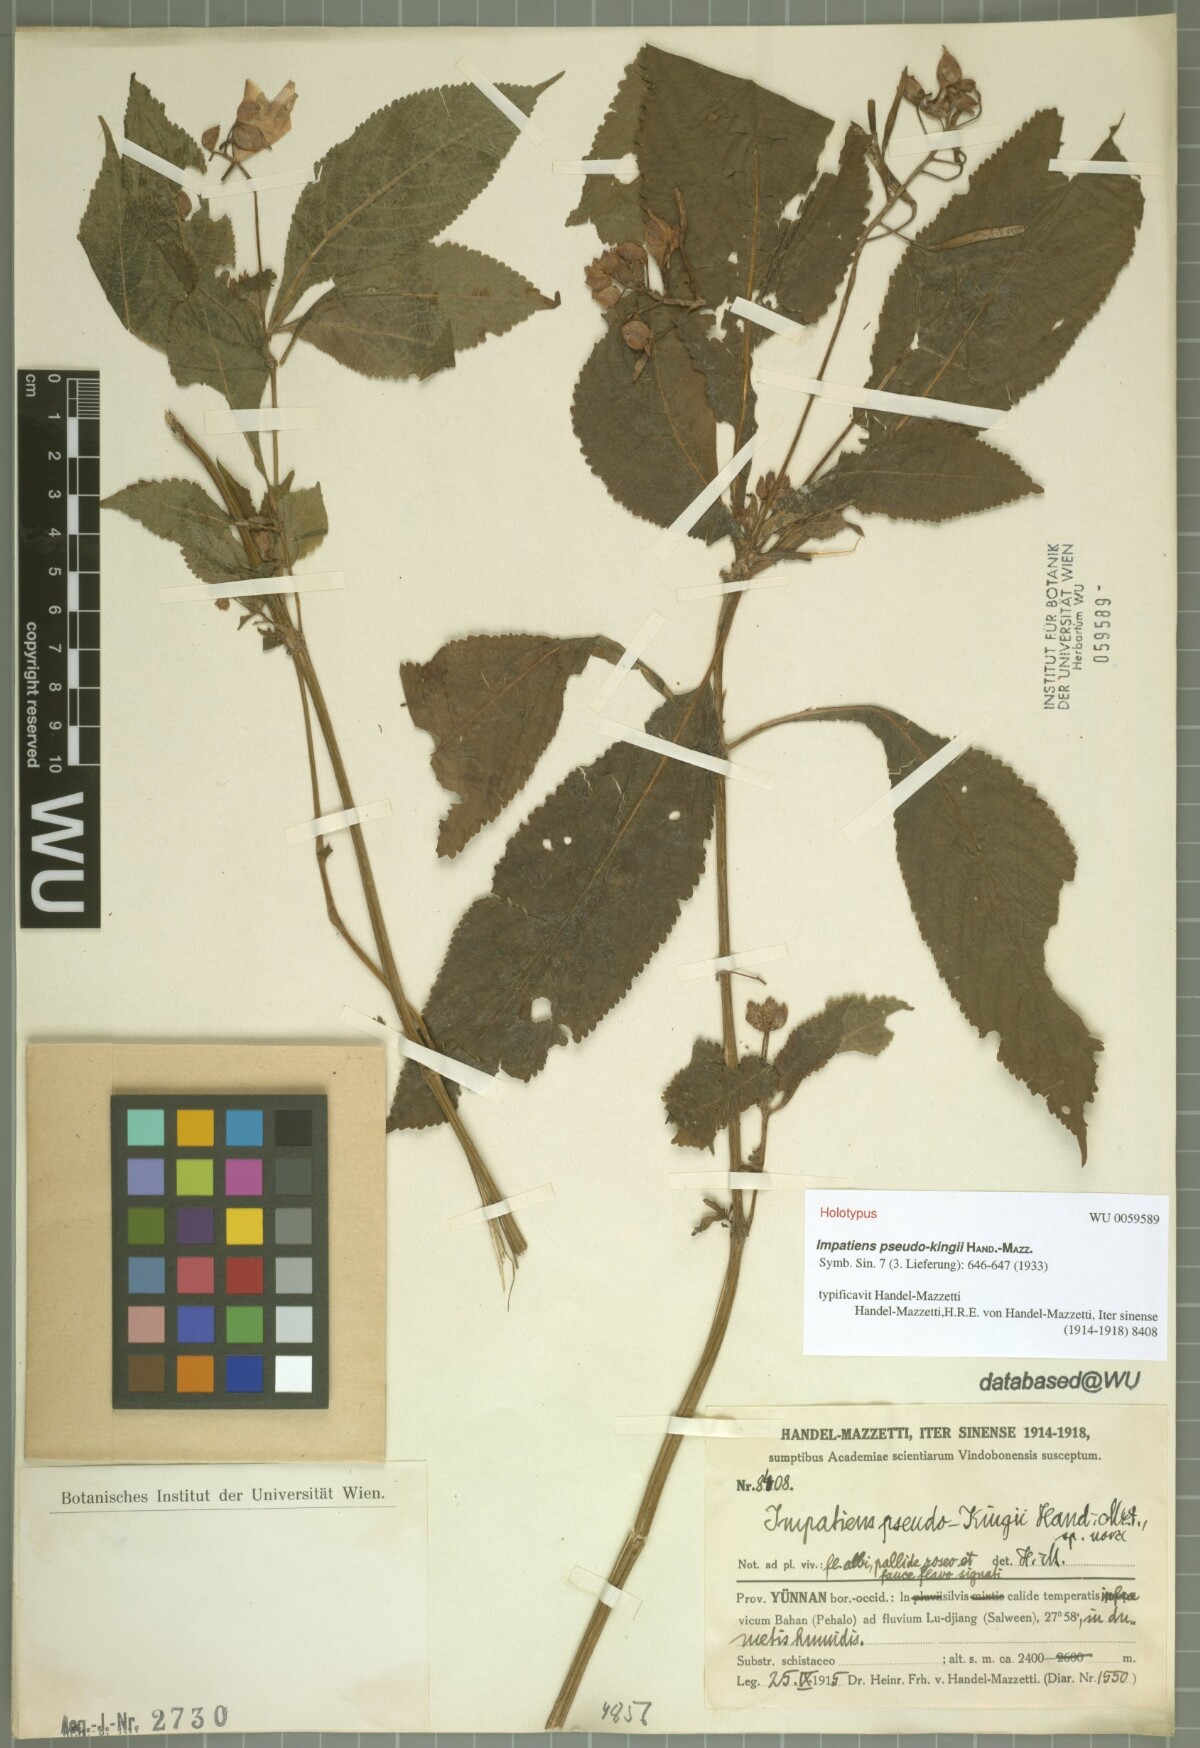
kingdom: Plantae
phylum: Tracheophyta
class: Magnoliopsida
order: Ericales
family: Balsaminaceae
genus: Impatiens
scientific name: Impatiens pseudokingii
